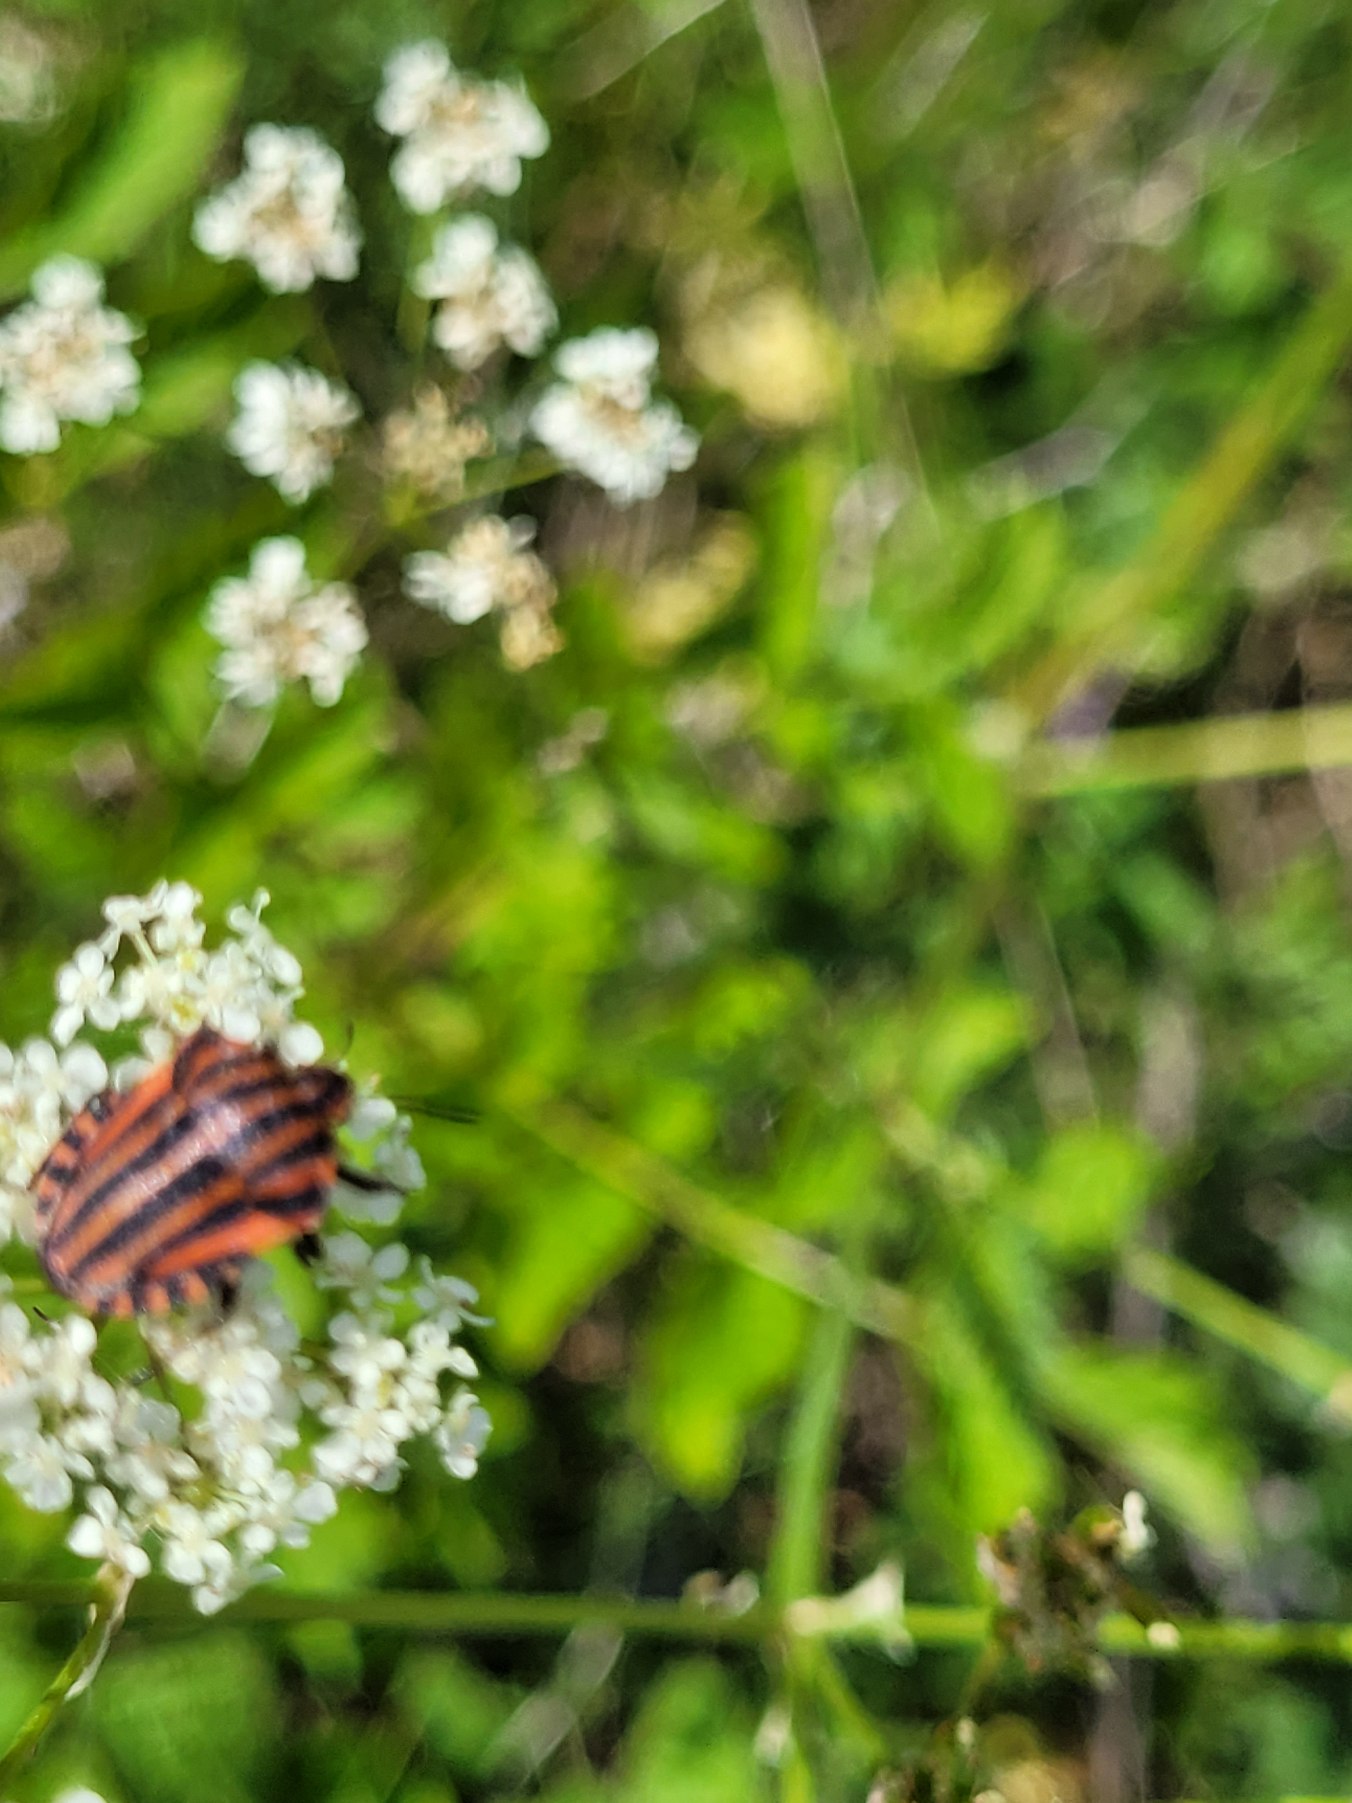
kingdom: Animalia
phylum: Arthropoda
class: Insecta
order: Hemiptera
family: Pentatomidae
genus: Graphosoma
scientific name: Graphosoma italicum
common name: Stribetæge
